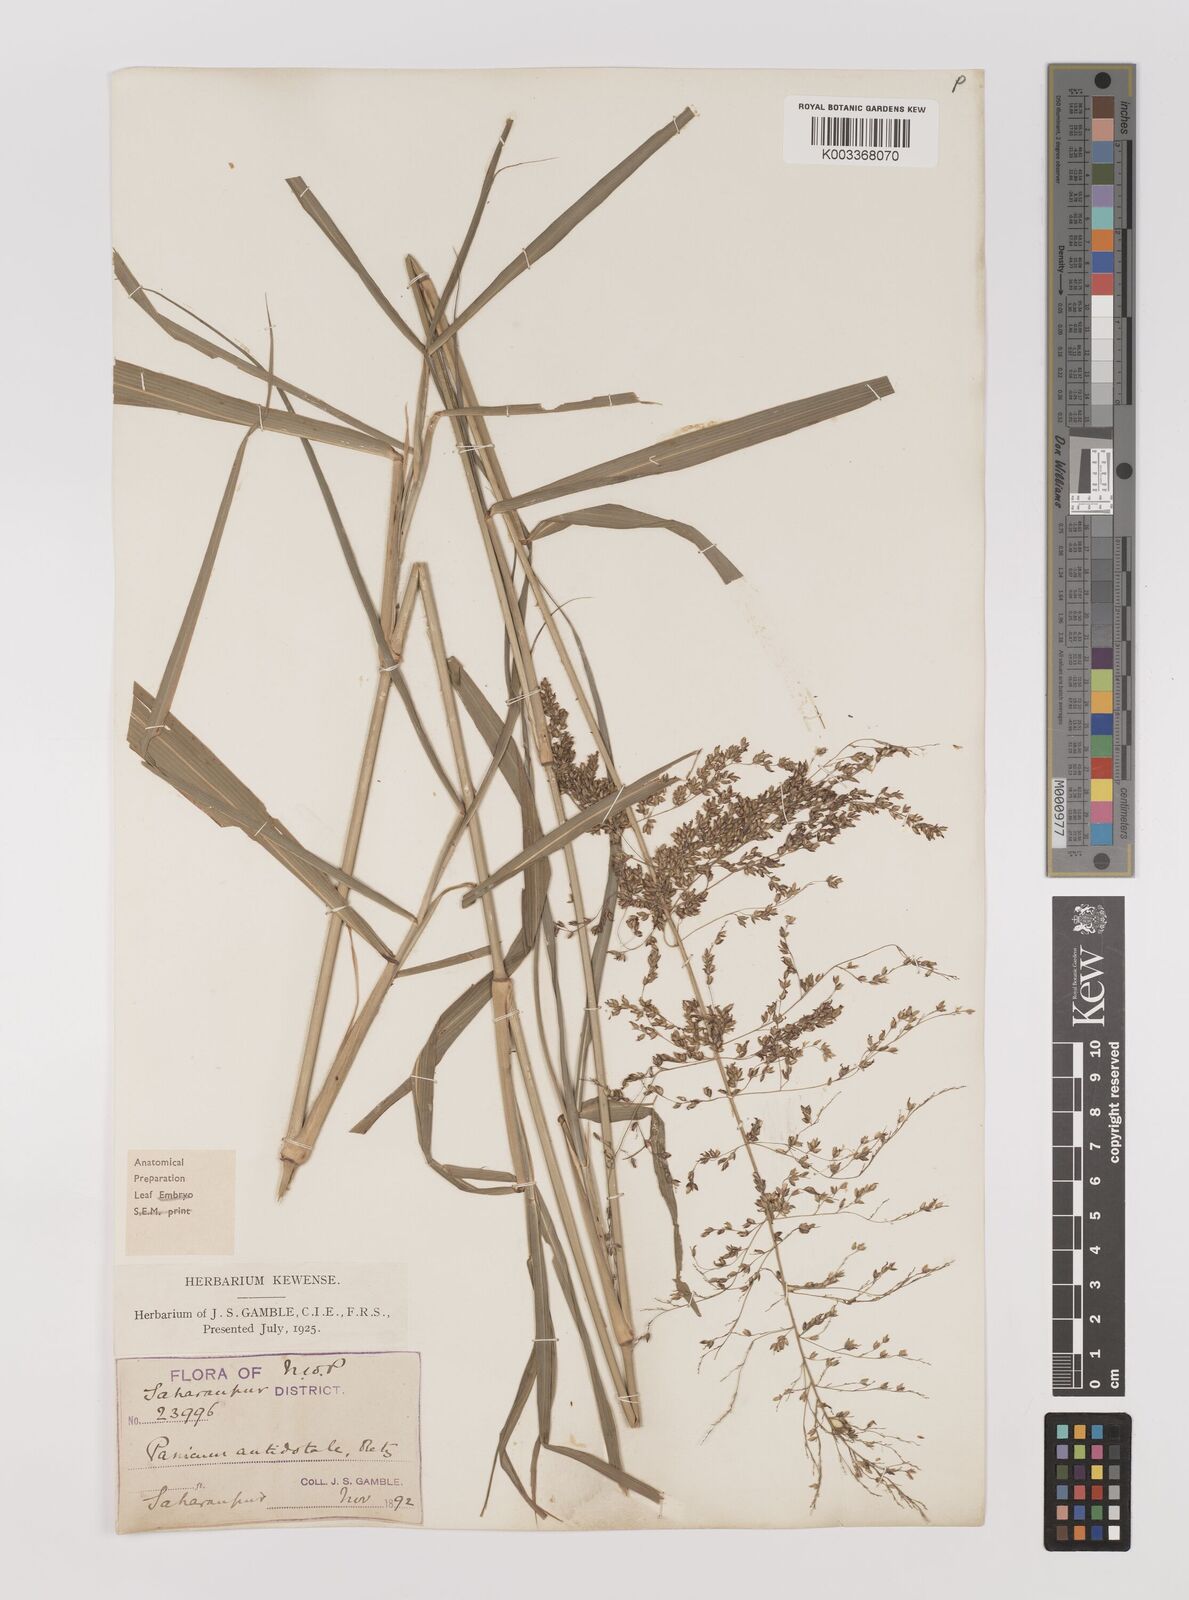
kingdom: Plantae
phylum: Tracheophyta
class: Liliopsida
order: Poales
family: Poaceae
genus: Panicum
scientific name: Panicum antidotale
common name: Blue panicum
